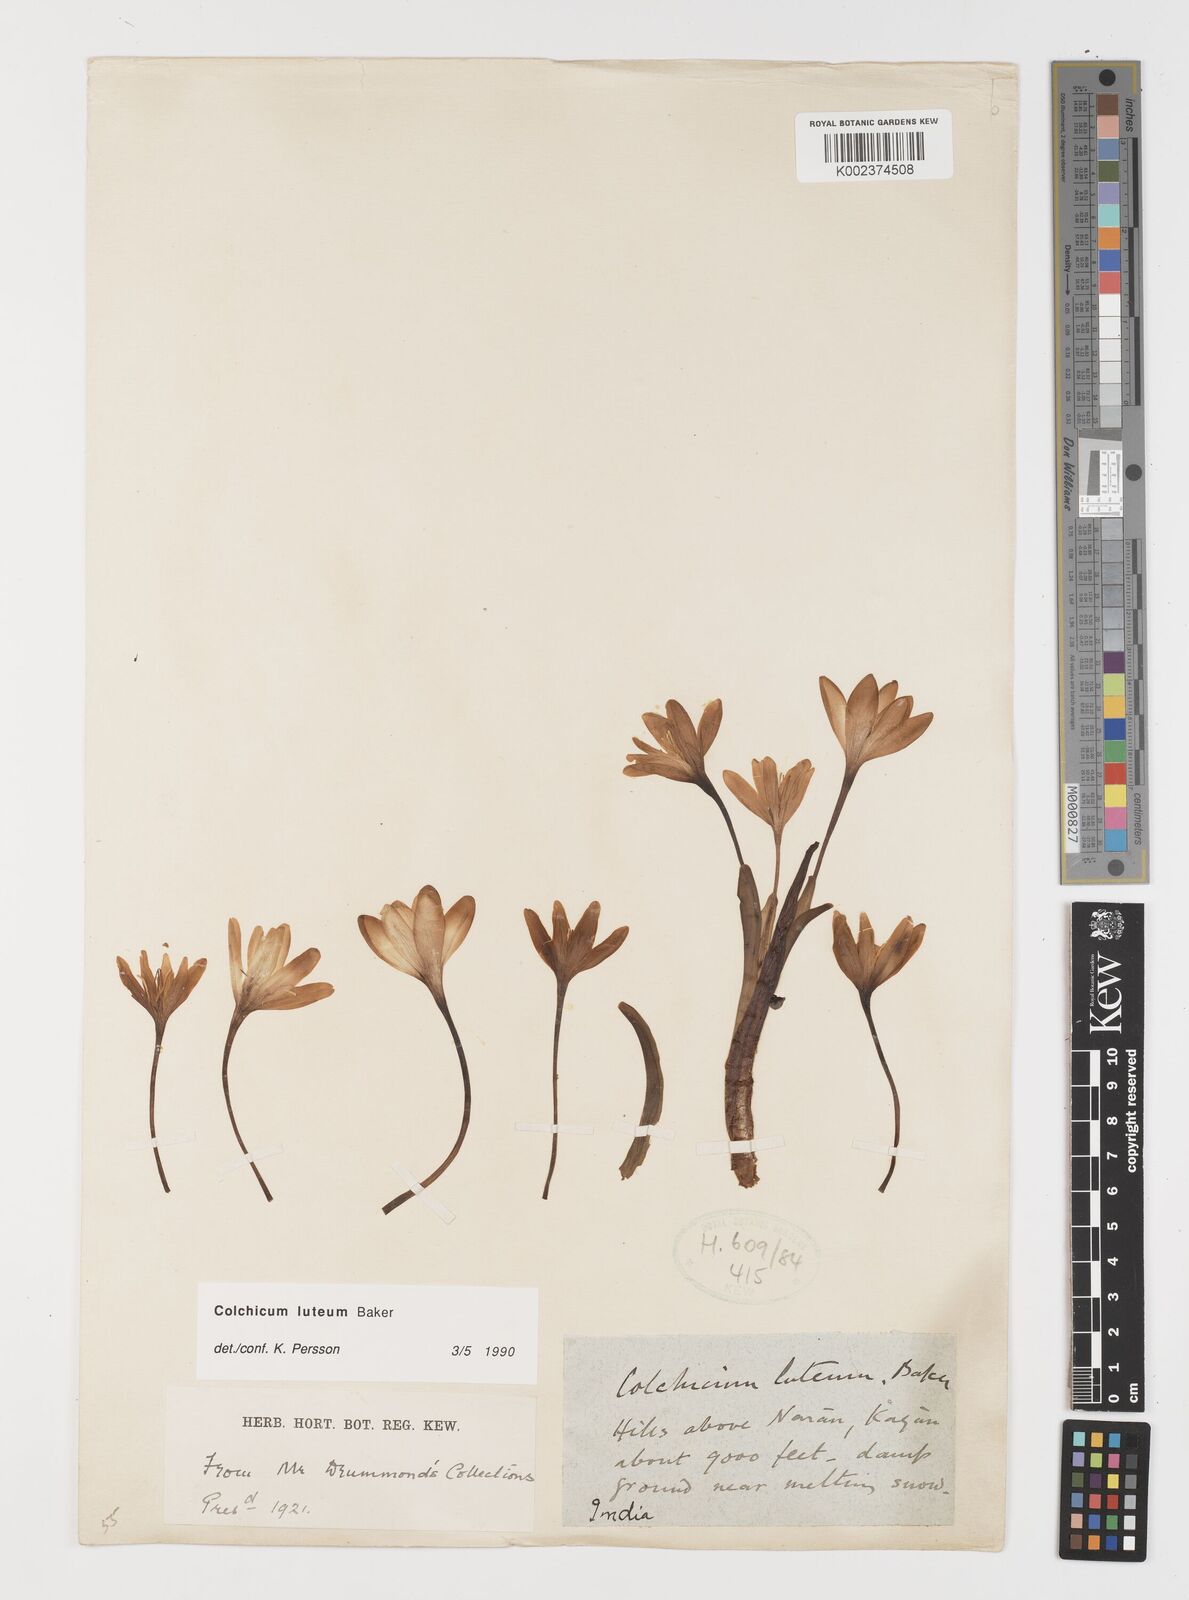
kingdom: Plantae
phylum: Tracheophyta
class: Liliopsida
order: Liliales
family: Colchicaceae
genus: Colchicum
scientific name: Colchicum luteum
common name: Indian colchicum
